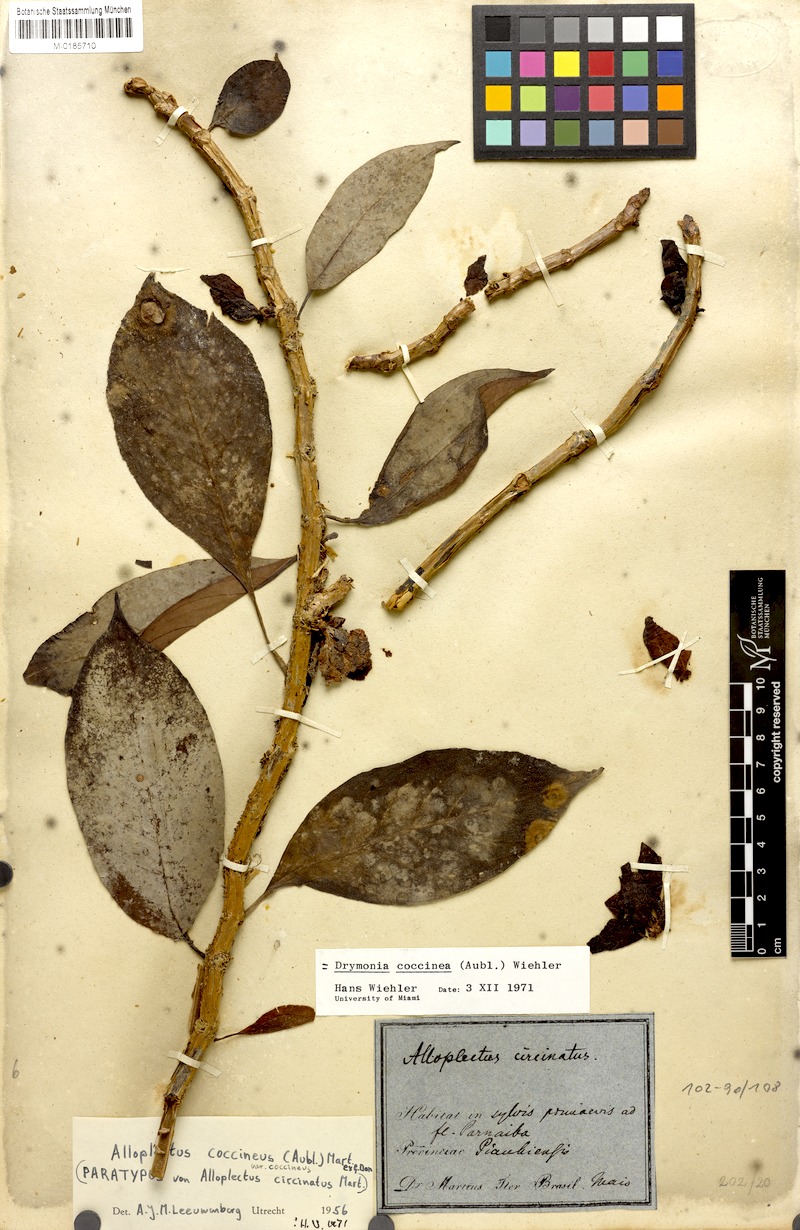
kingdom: Plantae
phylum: Tracheophyta
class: Magnoliopsida
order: Lamiales
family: Gesneriaceae
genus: Drymonia
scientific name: Drymonia coccinea
